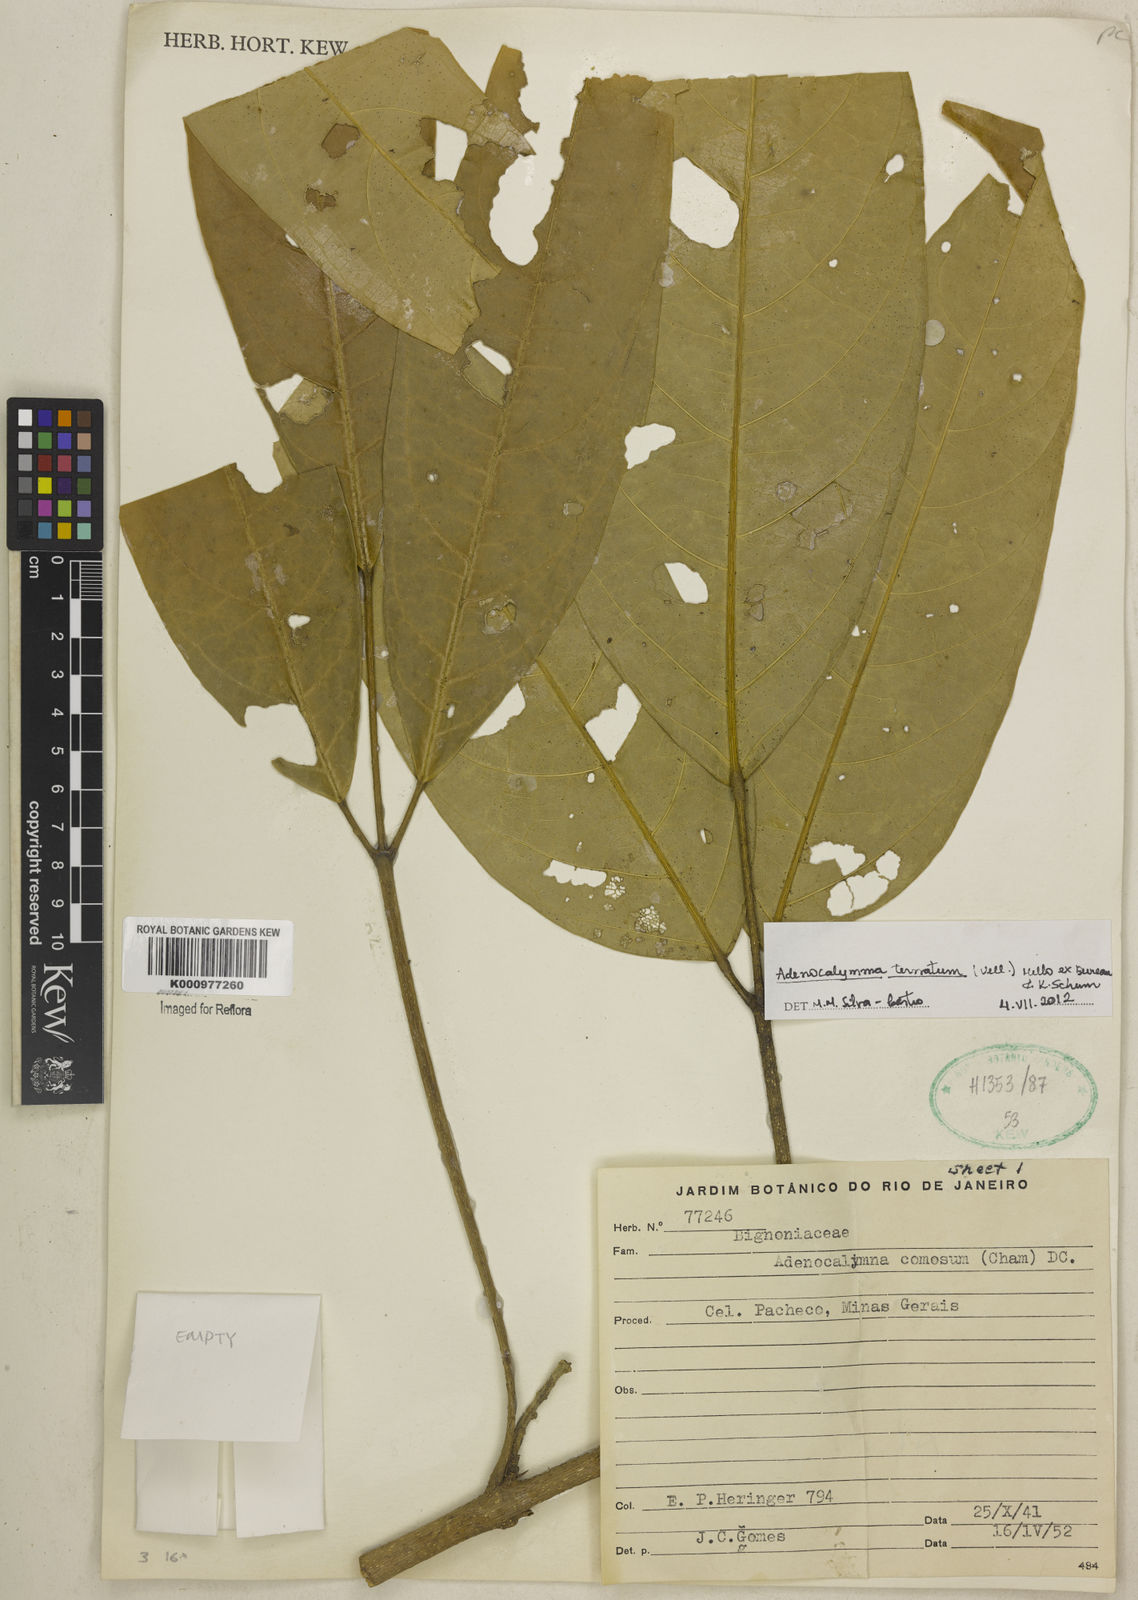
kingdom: Plantae
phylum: Tracheophyta
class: Magnoliopsida
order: Lamiales
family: Bignoniaceae
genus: Adenocalymma
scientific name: Adenocalymma ternatum
